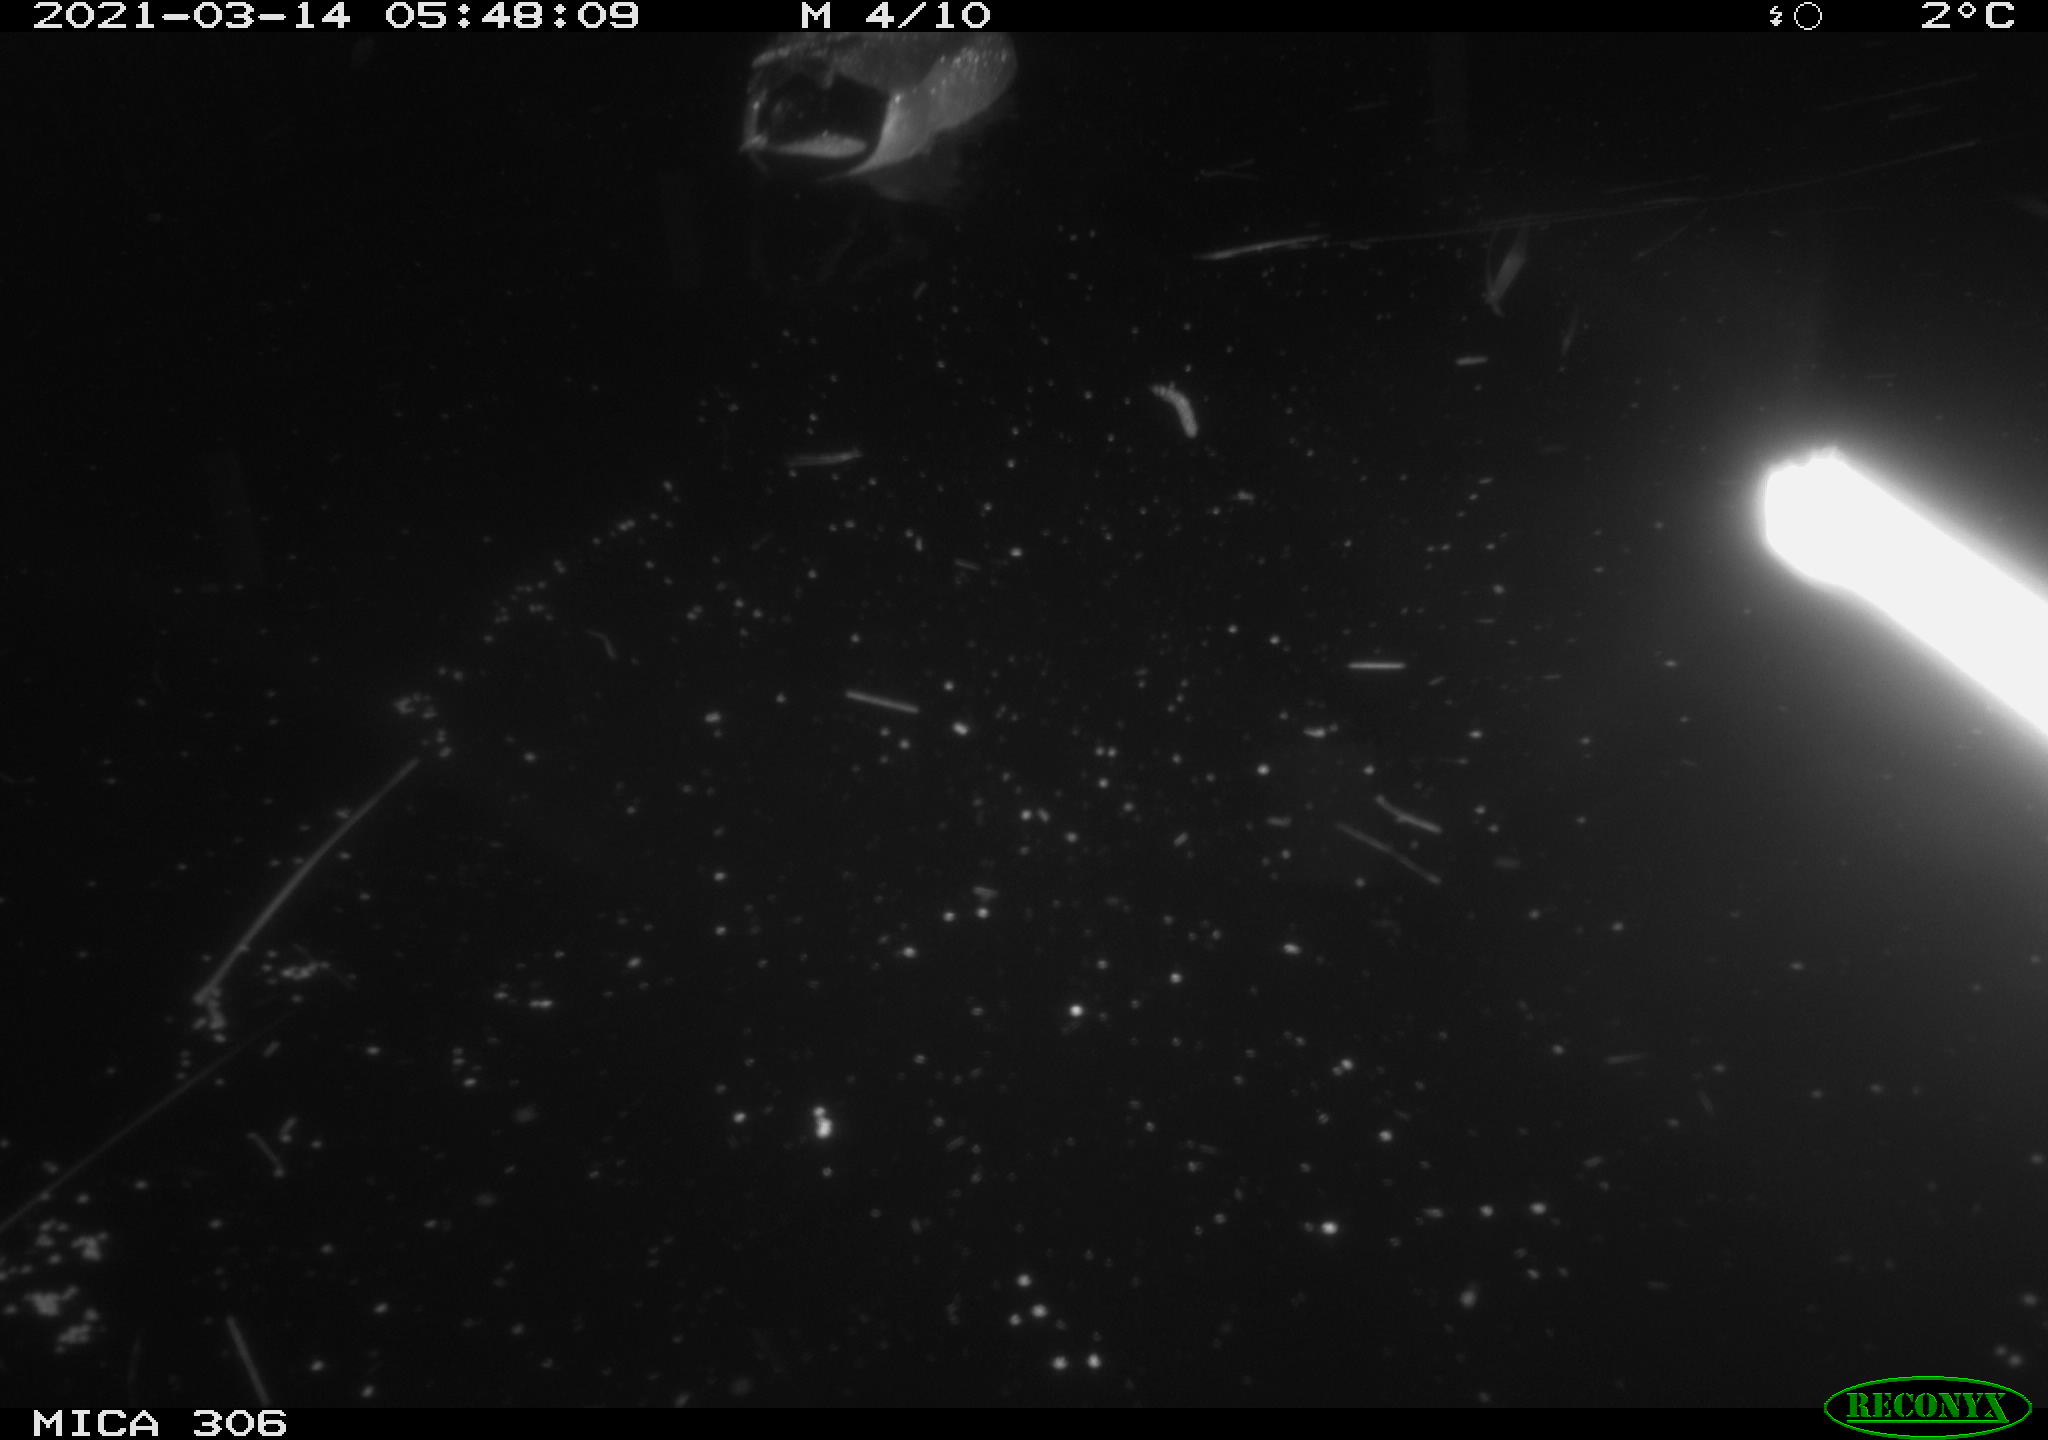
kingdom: Animalia
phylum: Chordata
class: Aves
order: Anseriformes
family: Anatidae
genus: Anas
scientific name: Anas platyrhynchos
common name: Mallard
